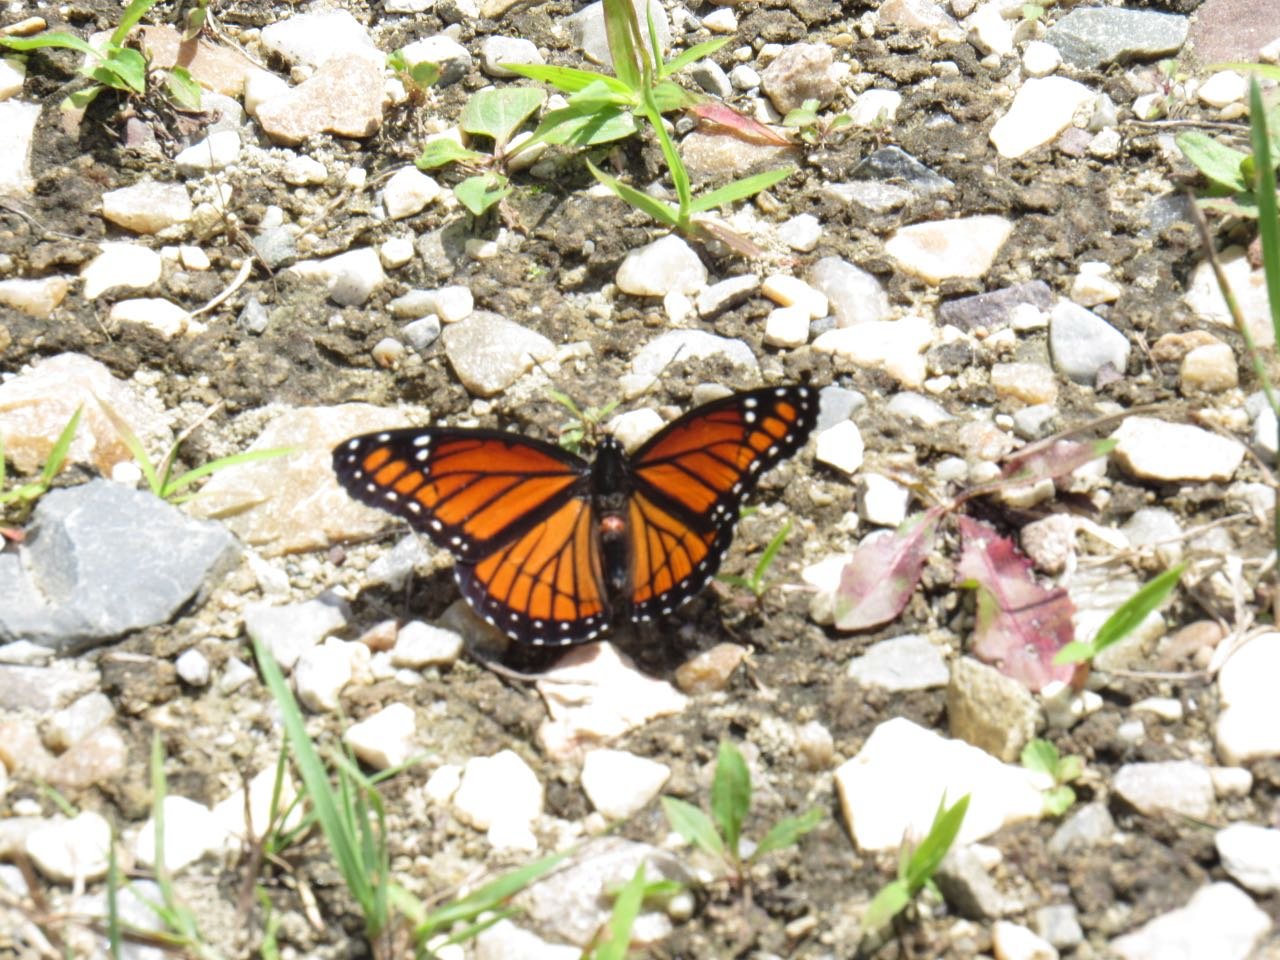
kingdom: Animalia
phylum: Arthropoda
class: Insecta
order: Lepidoptera
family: Nymphalidae
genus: Limenitis
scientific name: Limenitis archippus
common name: Viceroy
